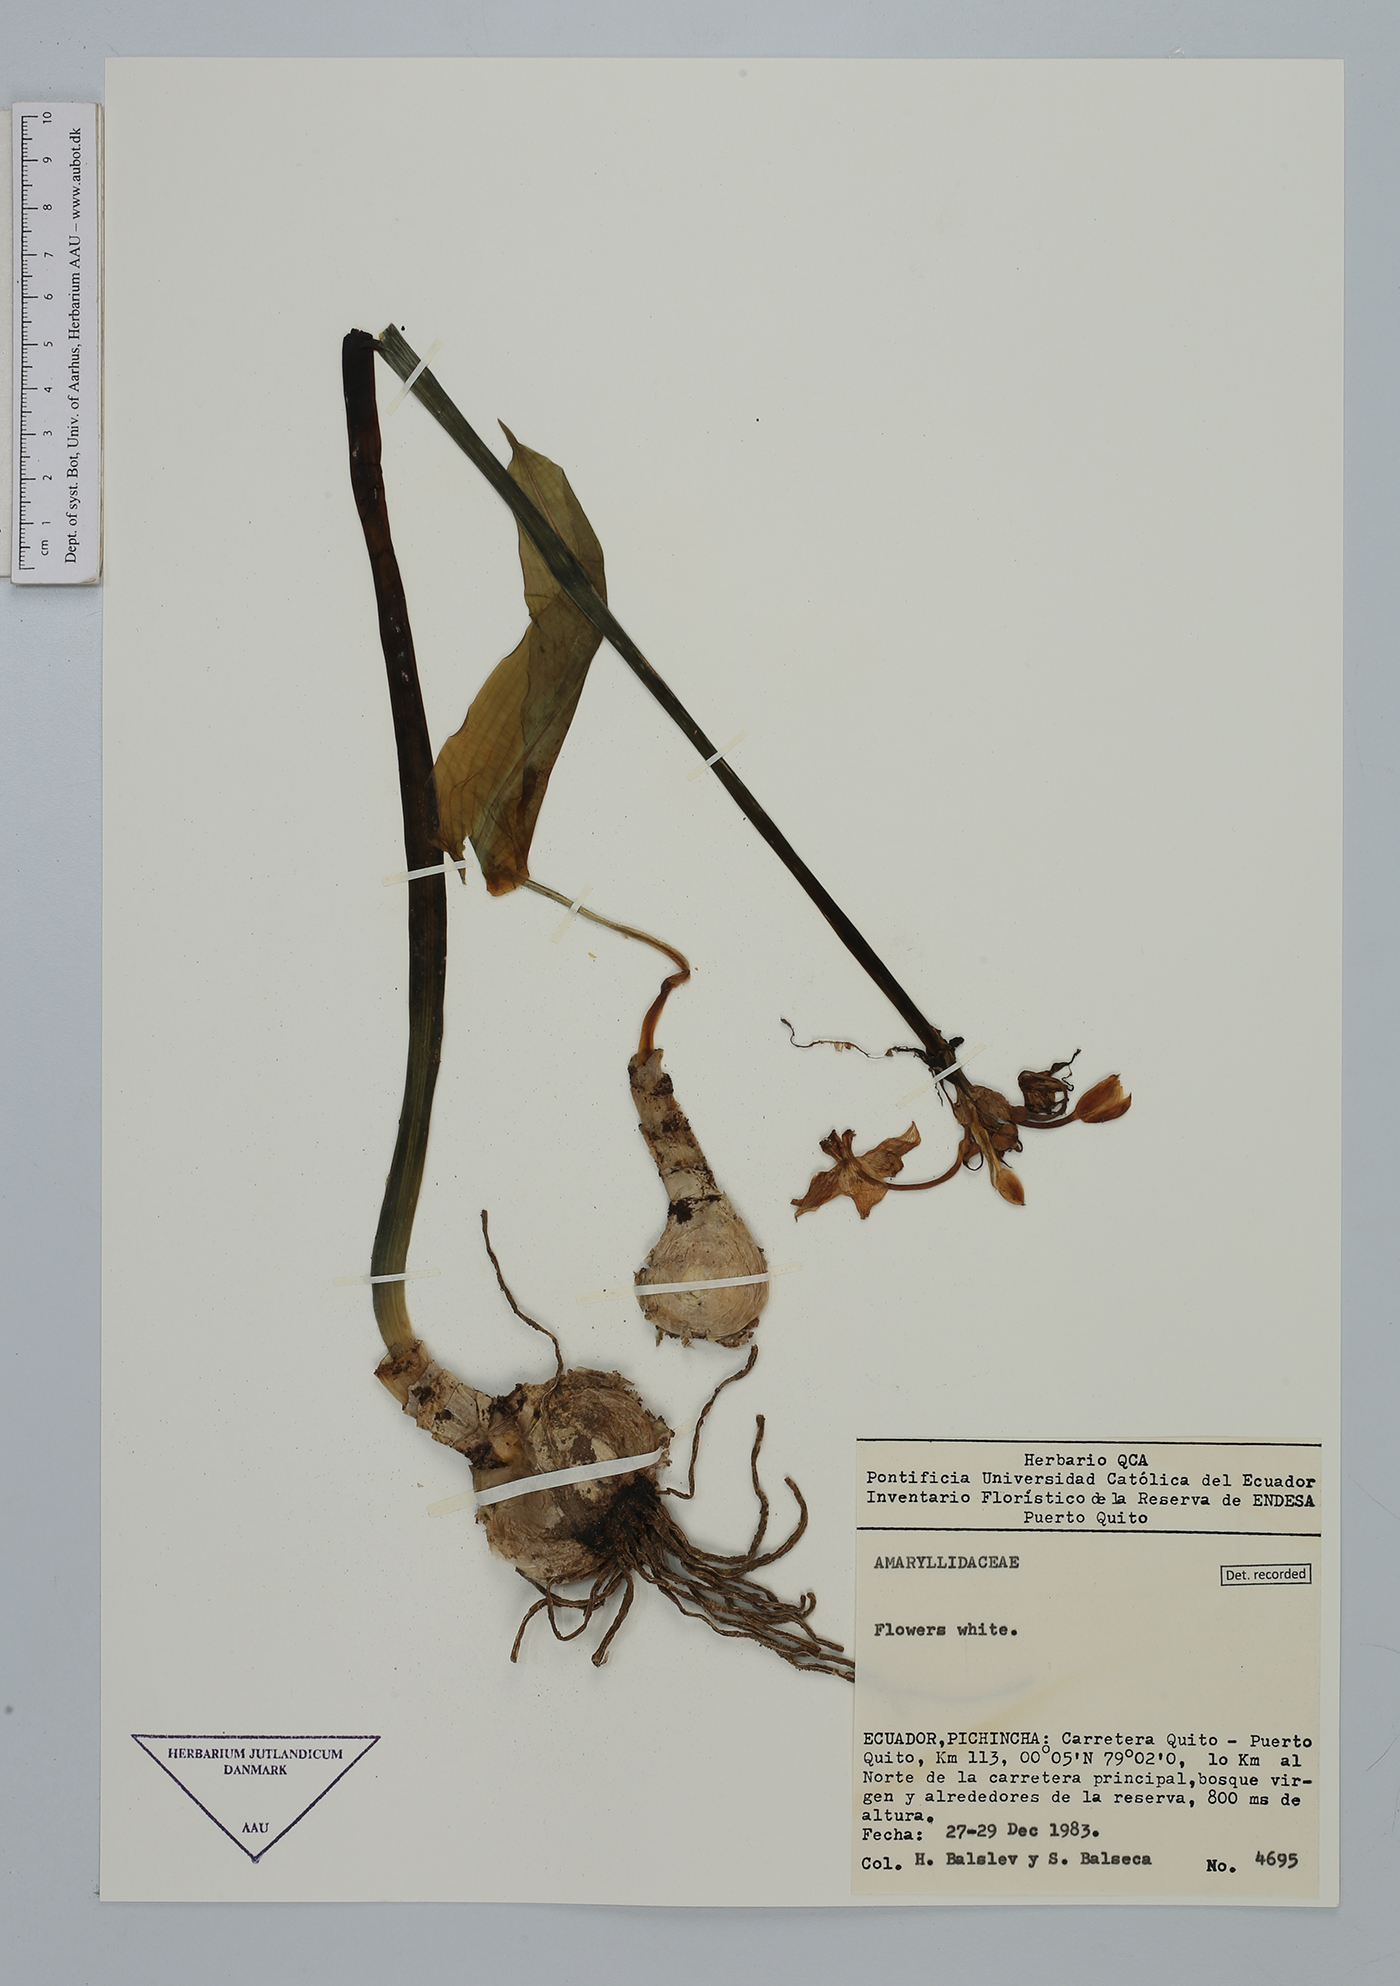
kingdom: Plantae
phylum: Tracheophyta
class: Liliopsida
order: Asparagales
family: Amaryllidaceae
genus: Urceolina
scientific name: Urceolina astrophiala
